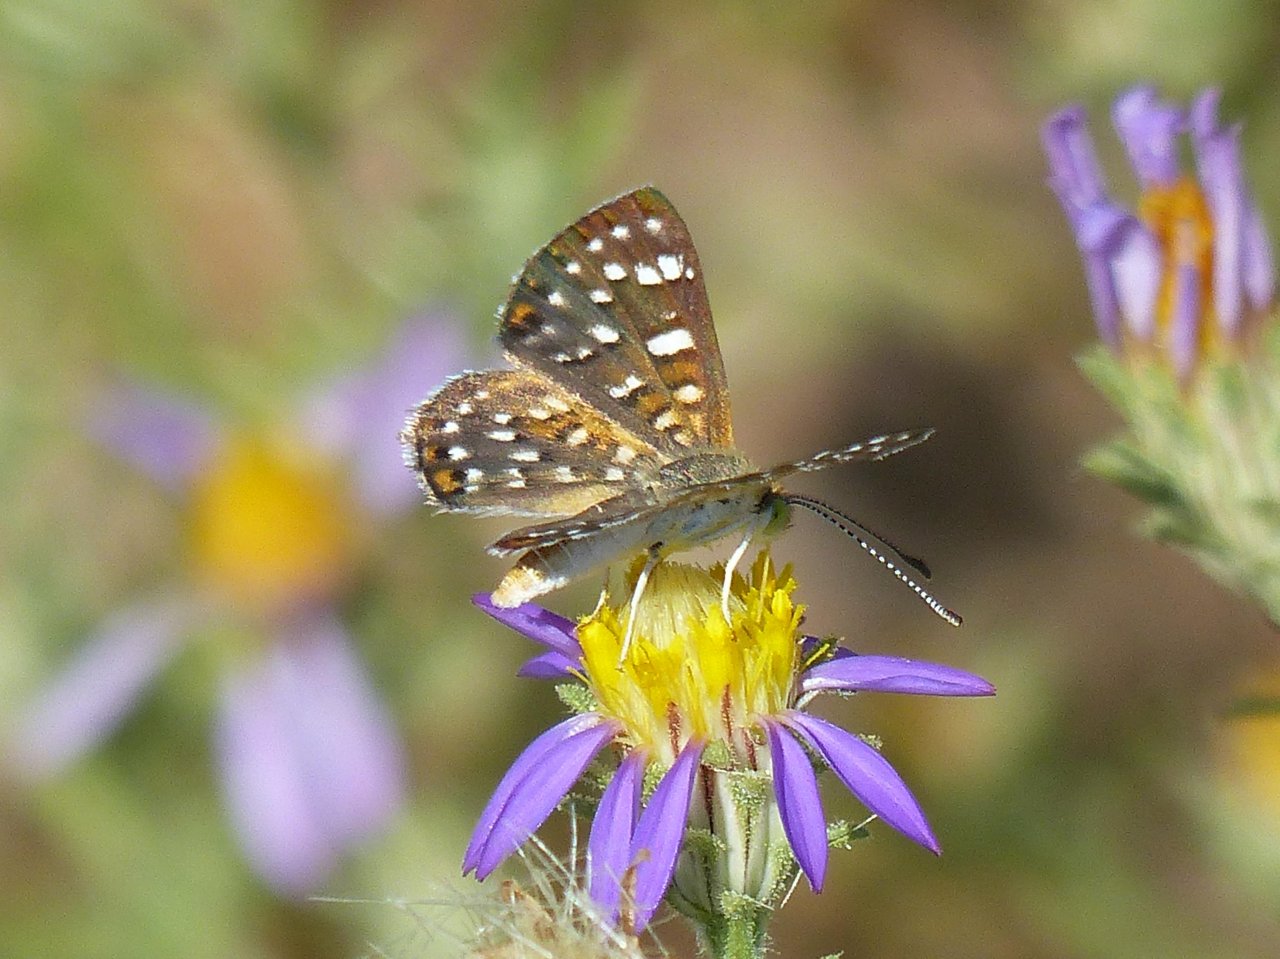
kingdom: Animalia
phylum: Arthropoda
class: Insecta
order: Lepidoptera
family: Riodinidae
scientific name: Riodinidae
